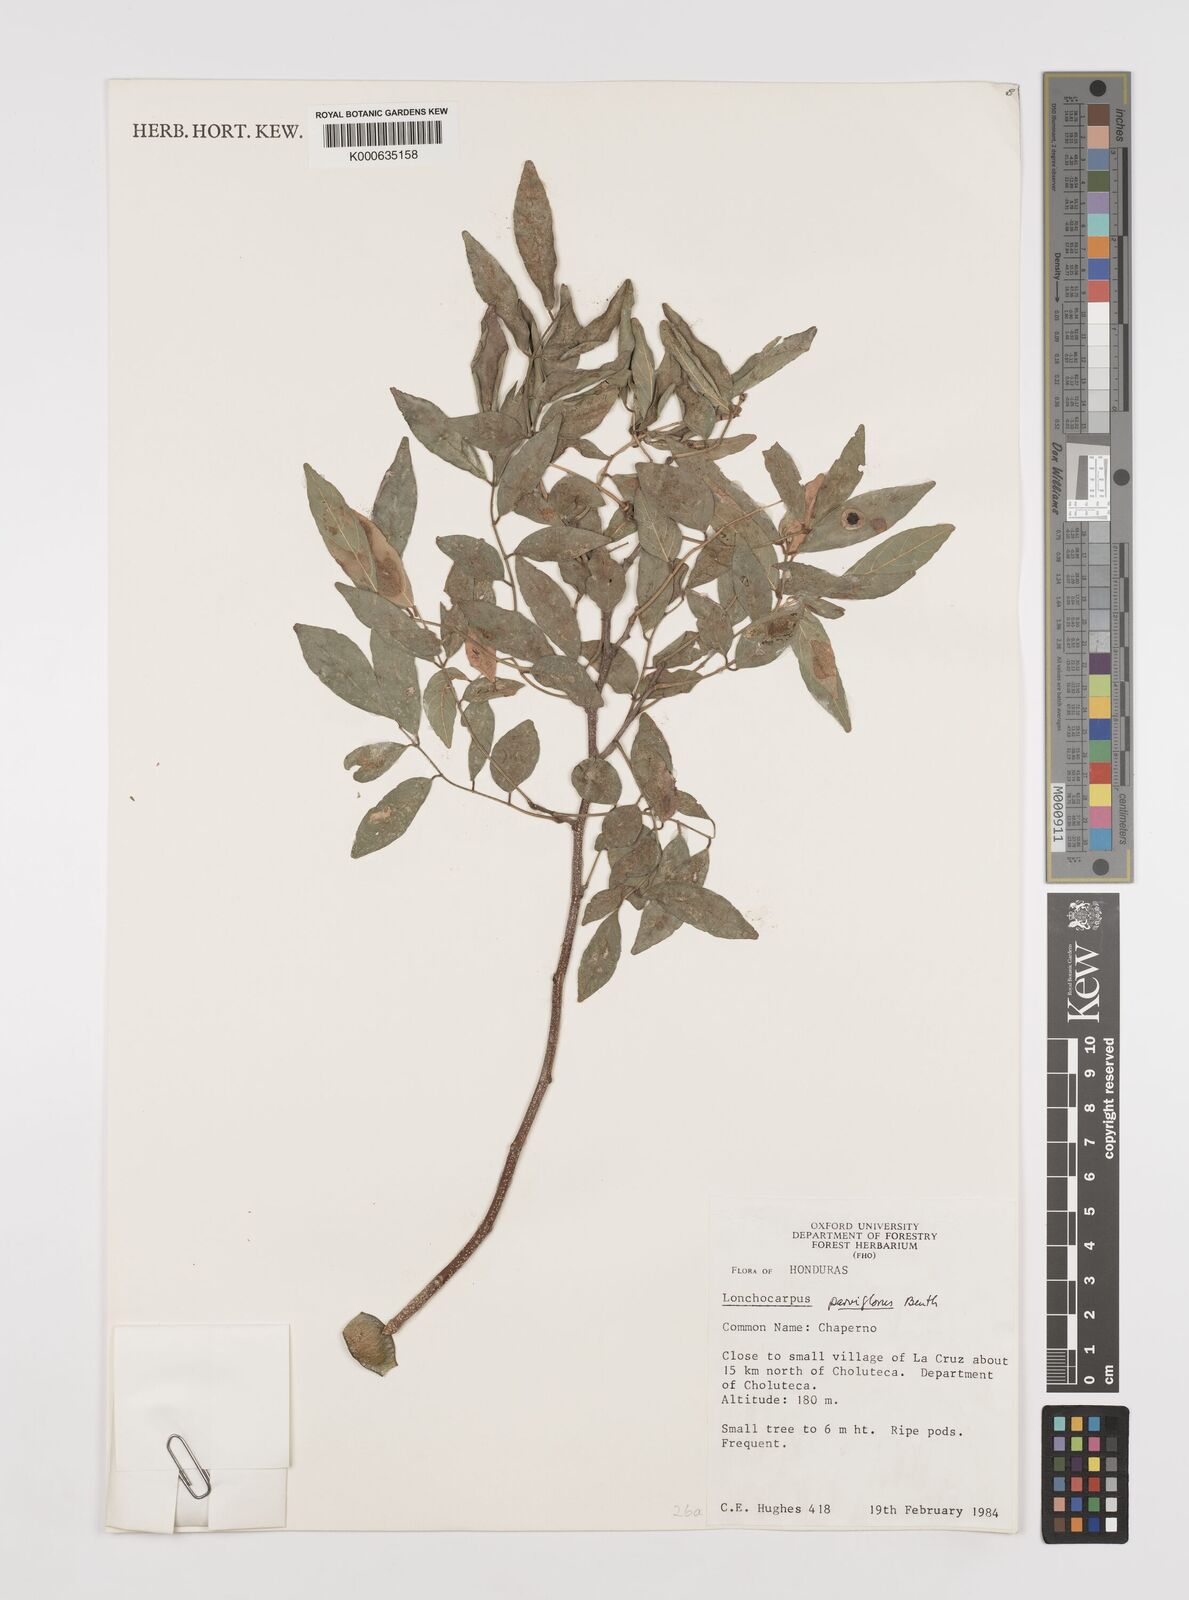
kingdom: Plantae
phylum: Tracheophyta
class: Magnoliopsida
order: Fabales
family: Fabaceae
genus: Lonchocarpus
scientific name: Lonchocarpus parviflorus
